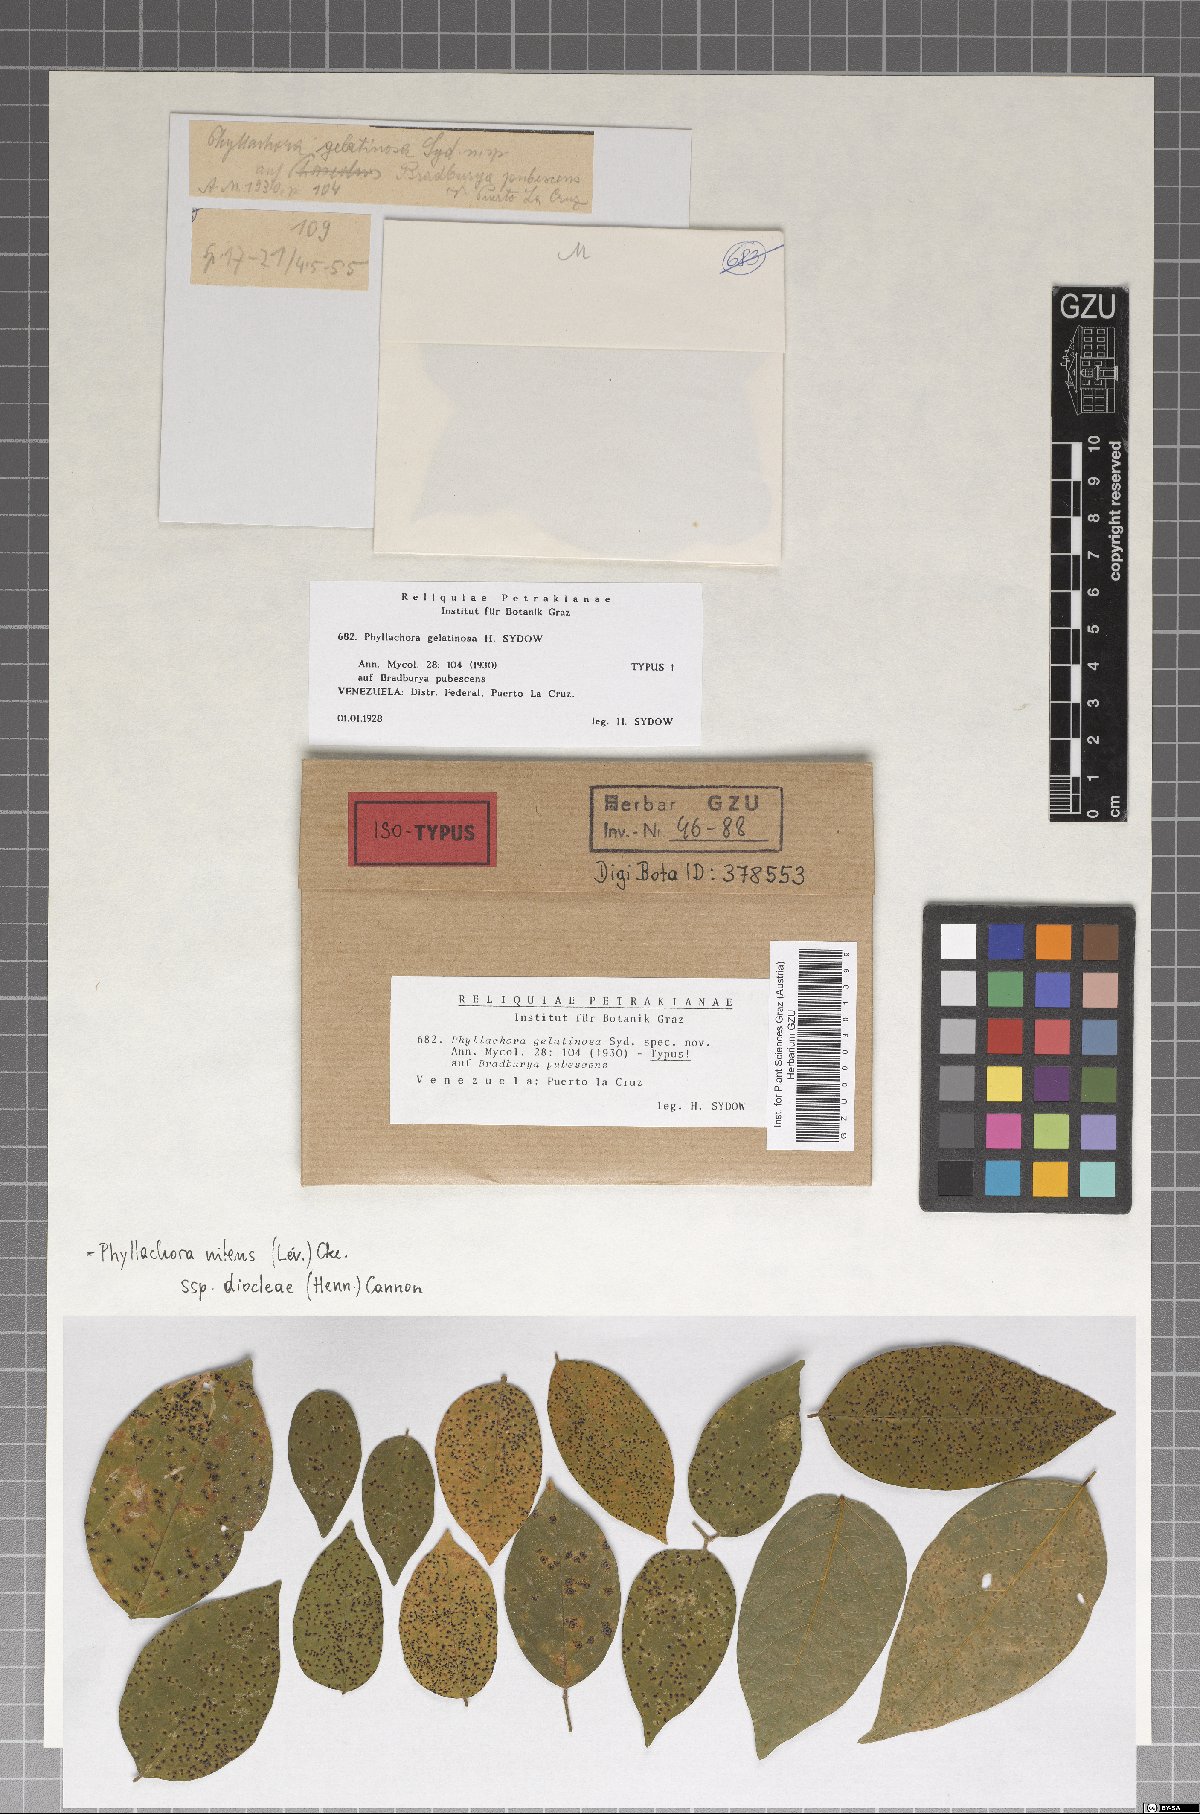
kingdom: Fungi
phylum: Ascomycota
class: Sordariomycetes
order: Phyllachorales
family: Phyllachoraceae
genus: Phyllachora
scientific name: Phyllachora nitens
